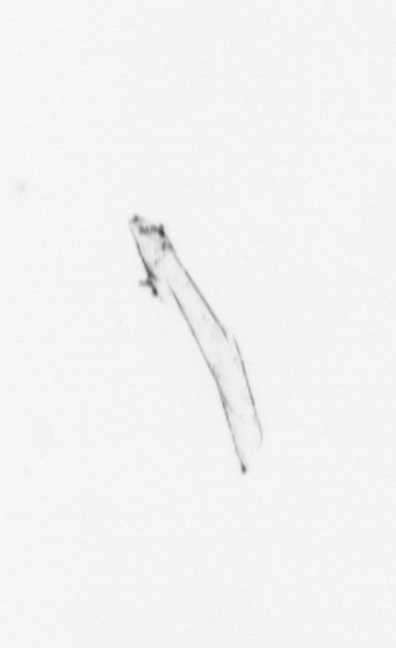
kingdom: Chromista
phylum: Ochrophyta
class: Bacillariophyceae
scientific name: Bacillariophyceae
